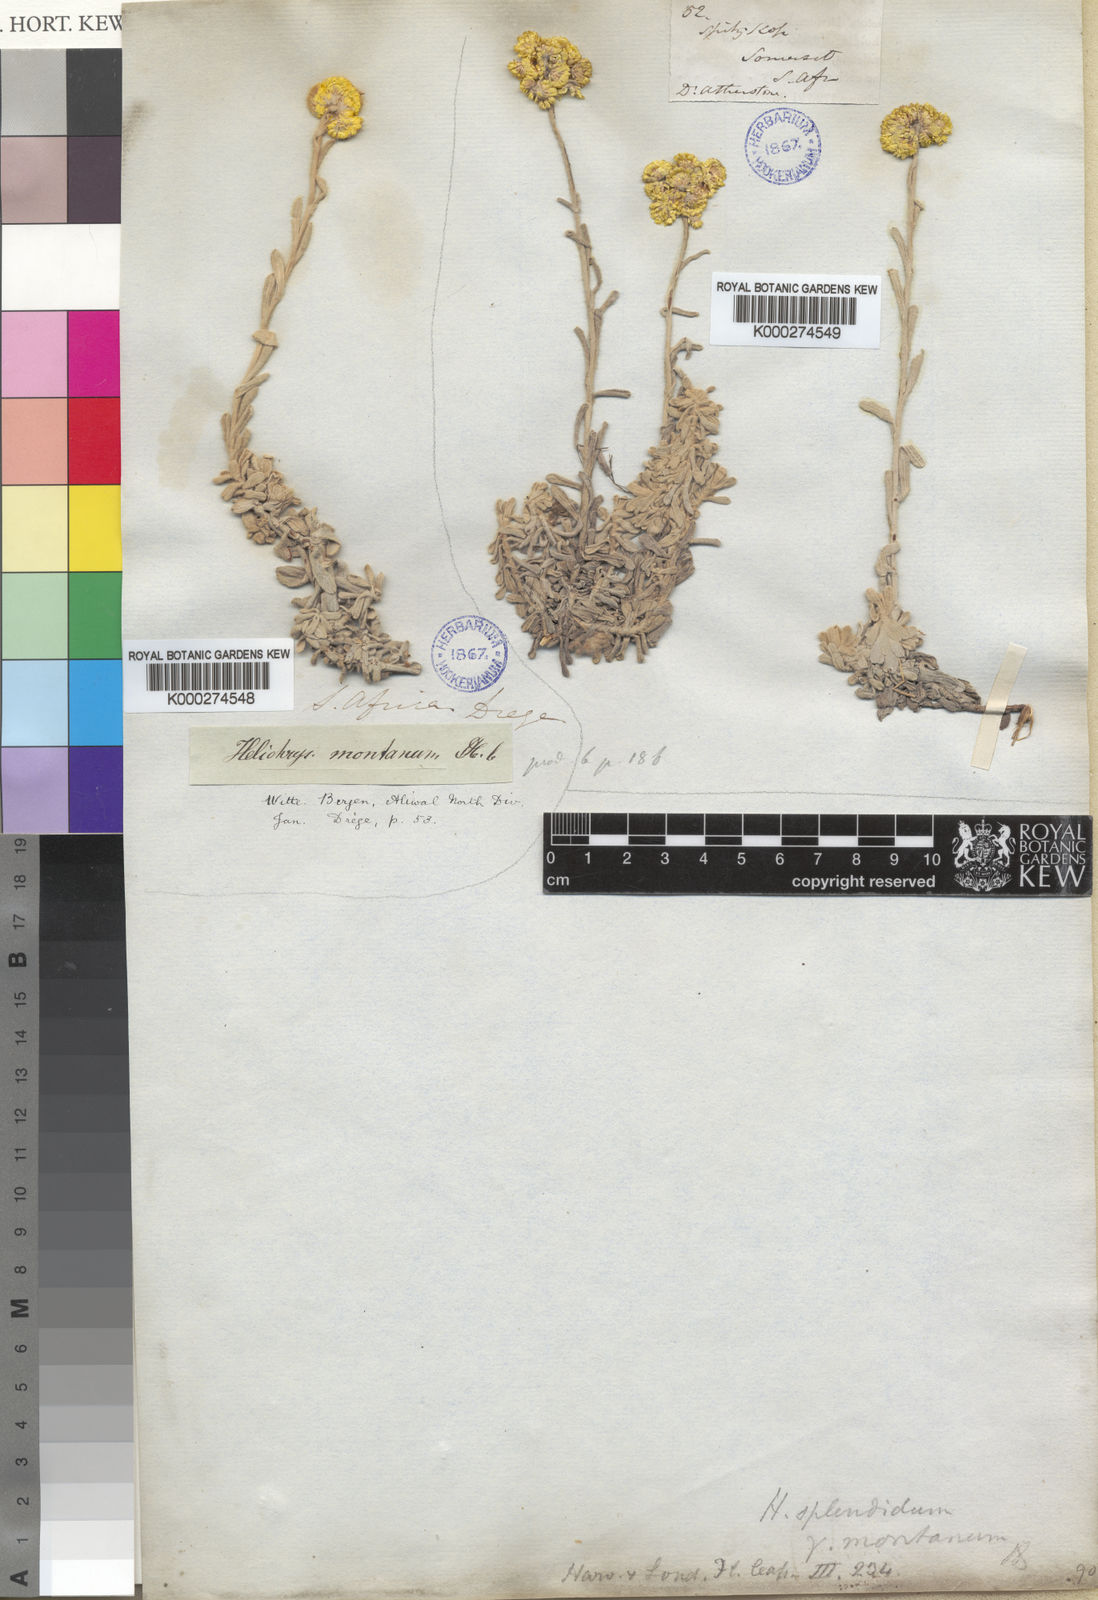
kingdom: Plantae
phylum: Tracheophyta
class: Magnoliopsida
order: Asterales
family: Asteraceae
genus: Helichrysum
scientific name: Helichrysum montanum
